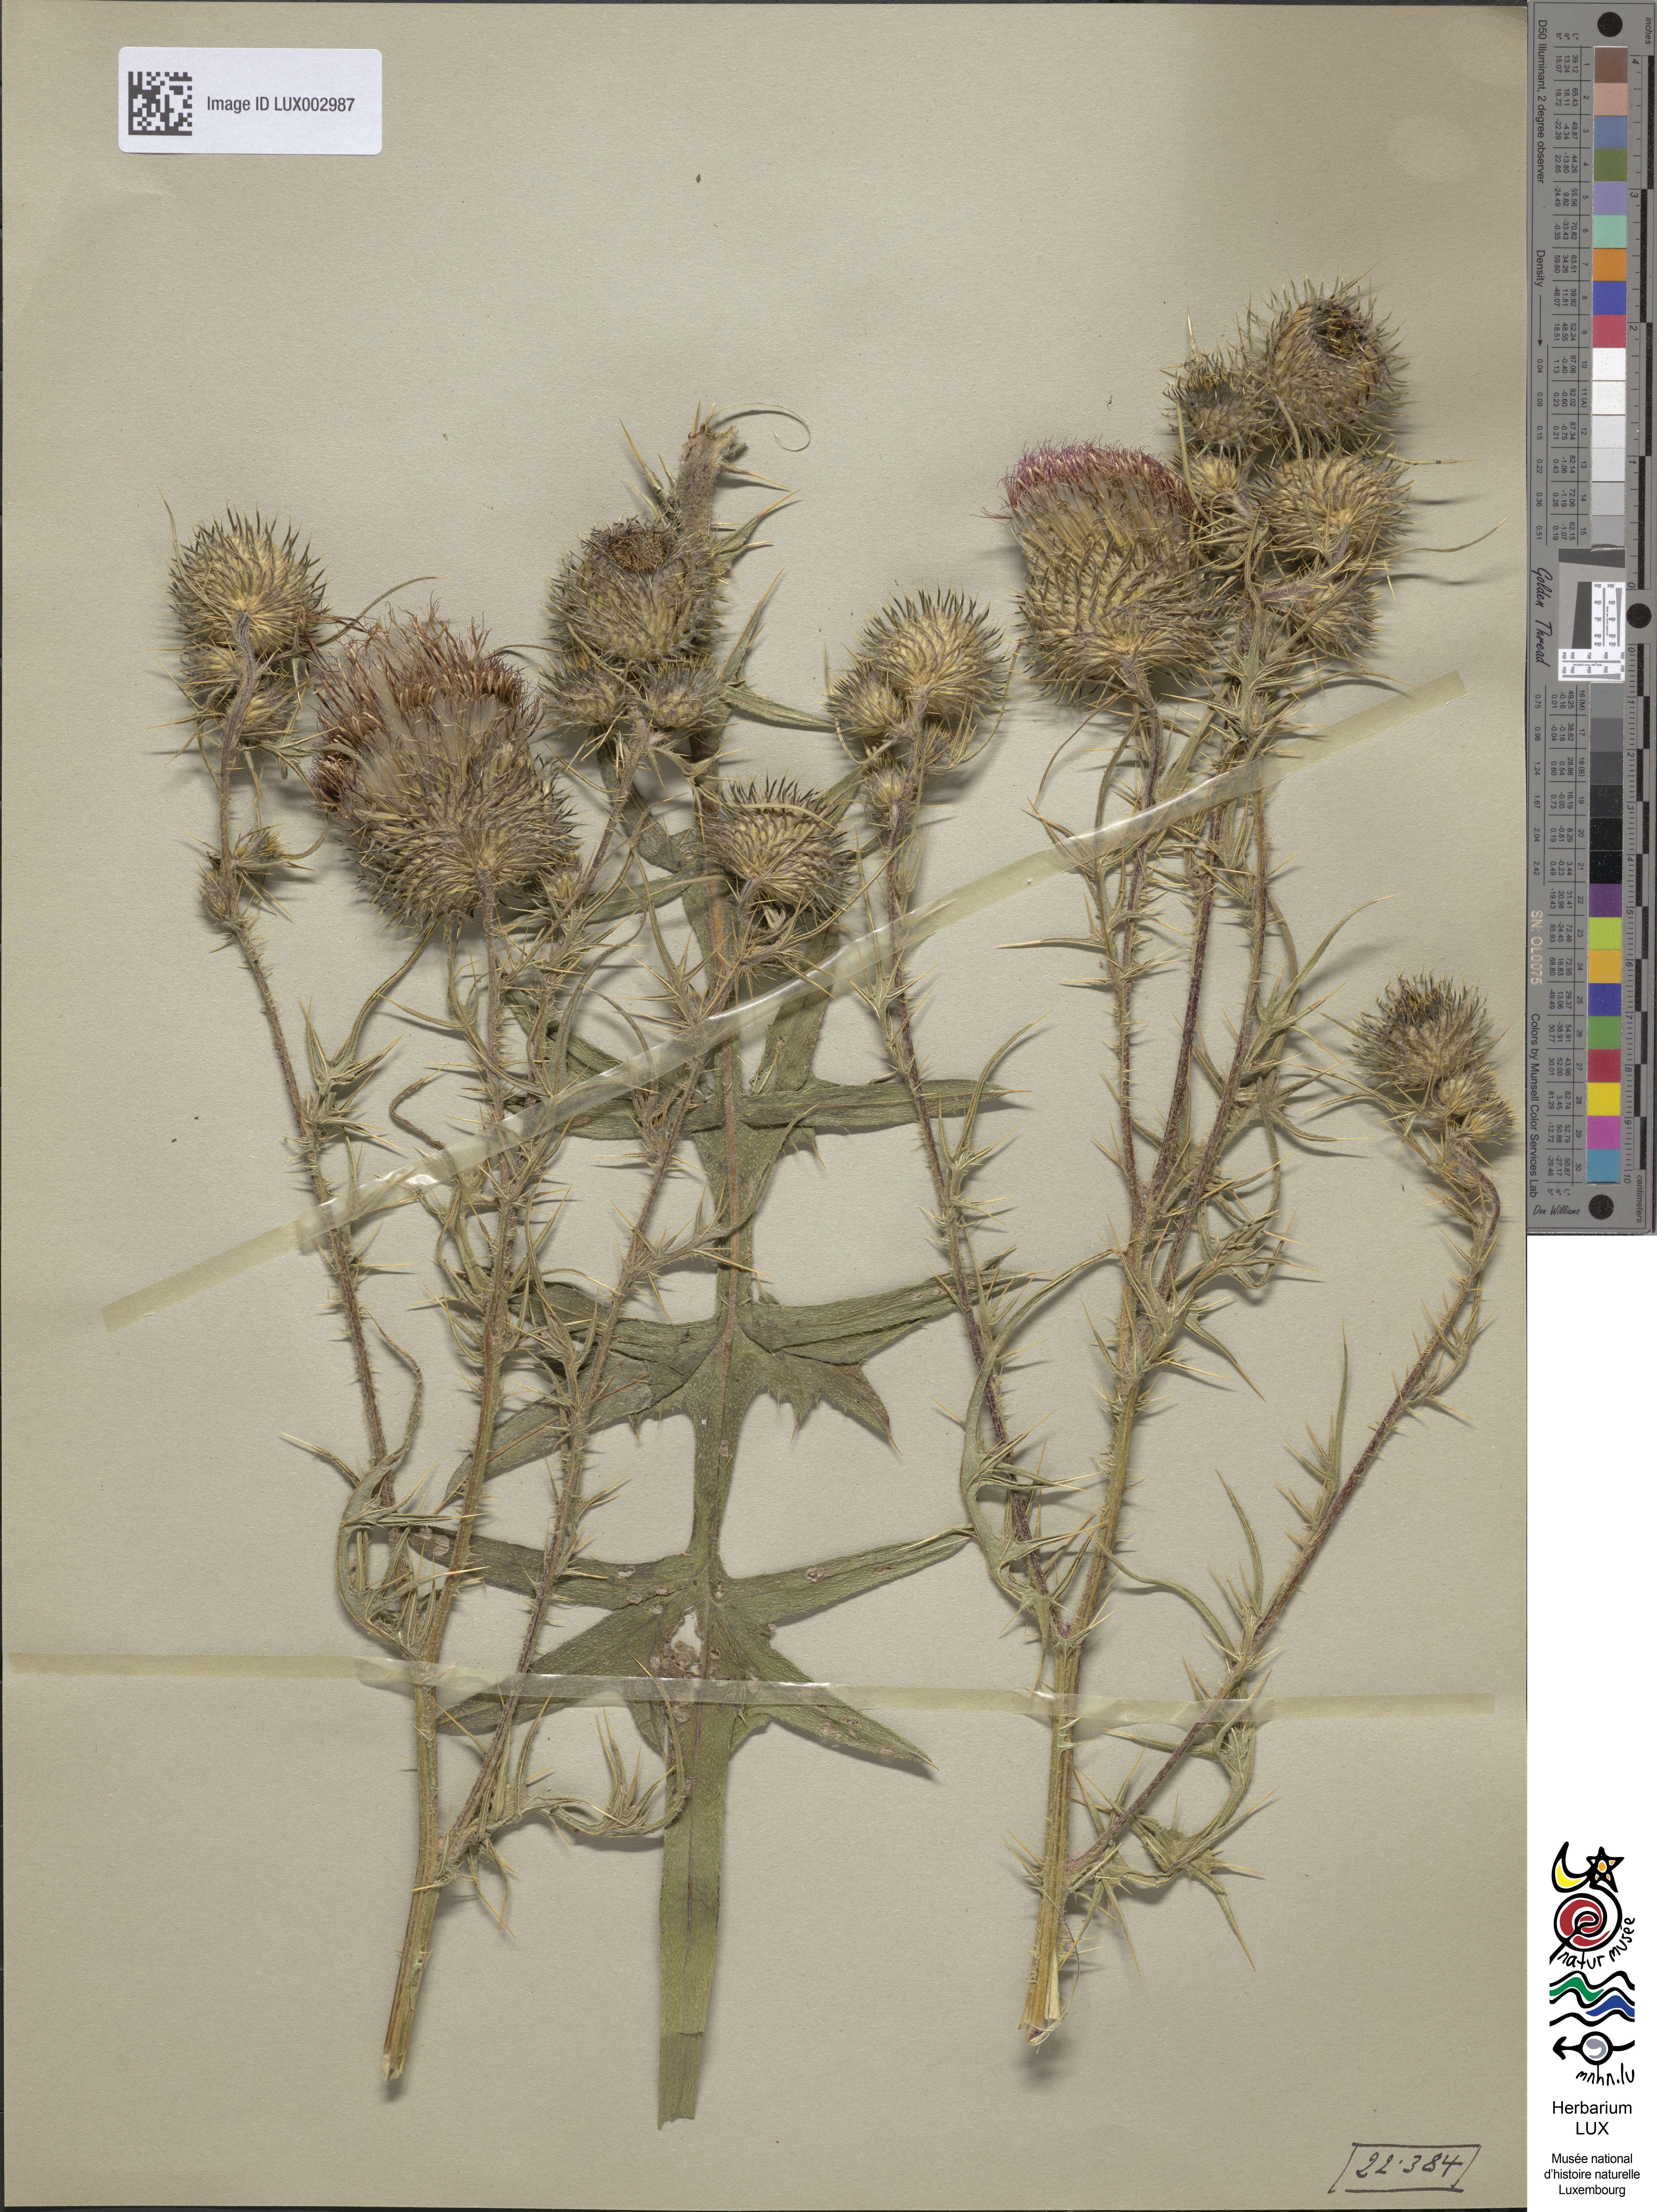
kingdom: Plantae
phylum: Tracheophyta
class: Magnoliopsida
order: Asterales
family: Asteraceae
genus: Cirsium
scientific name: Cirsium vulgare
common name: Bull thistle
